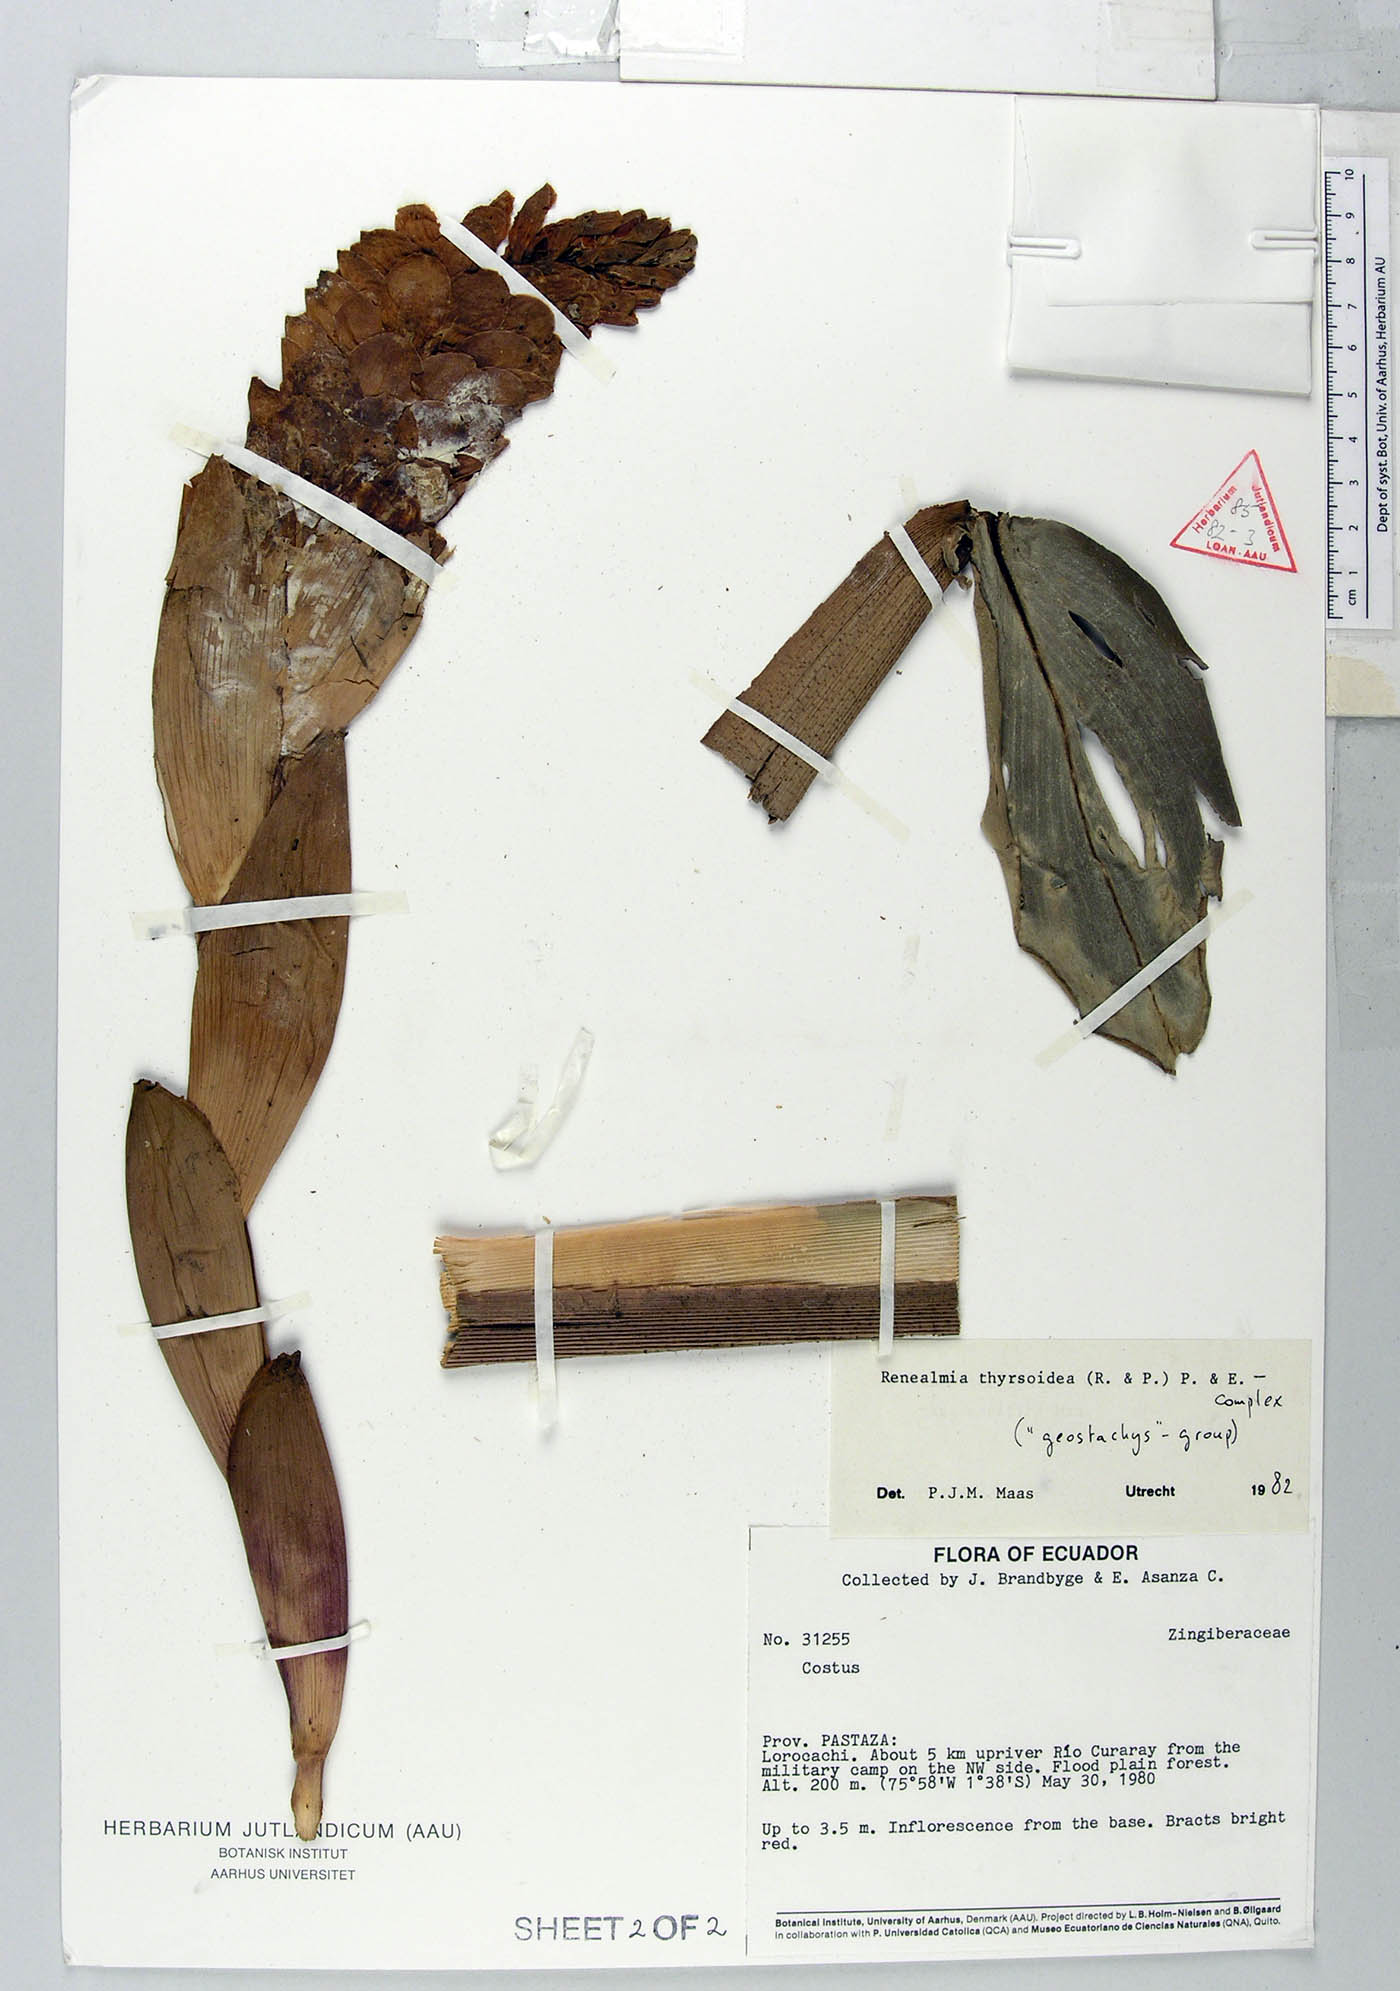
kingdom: Plantae
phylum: Tracheophyta
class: Liliopsida
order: Zingiberales
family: Zingiberaceae
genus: Renealmia
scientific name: Renealmia thyrsoidea
